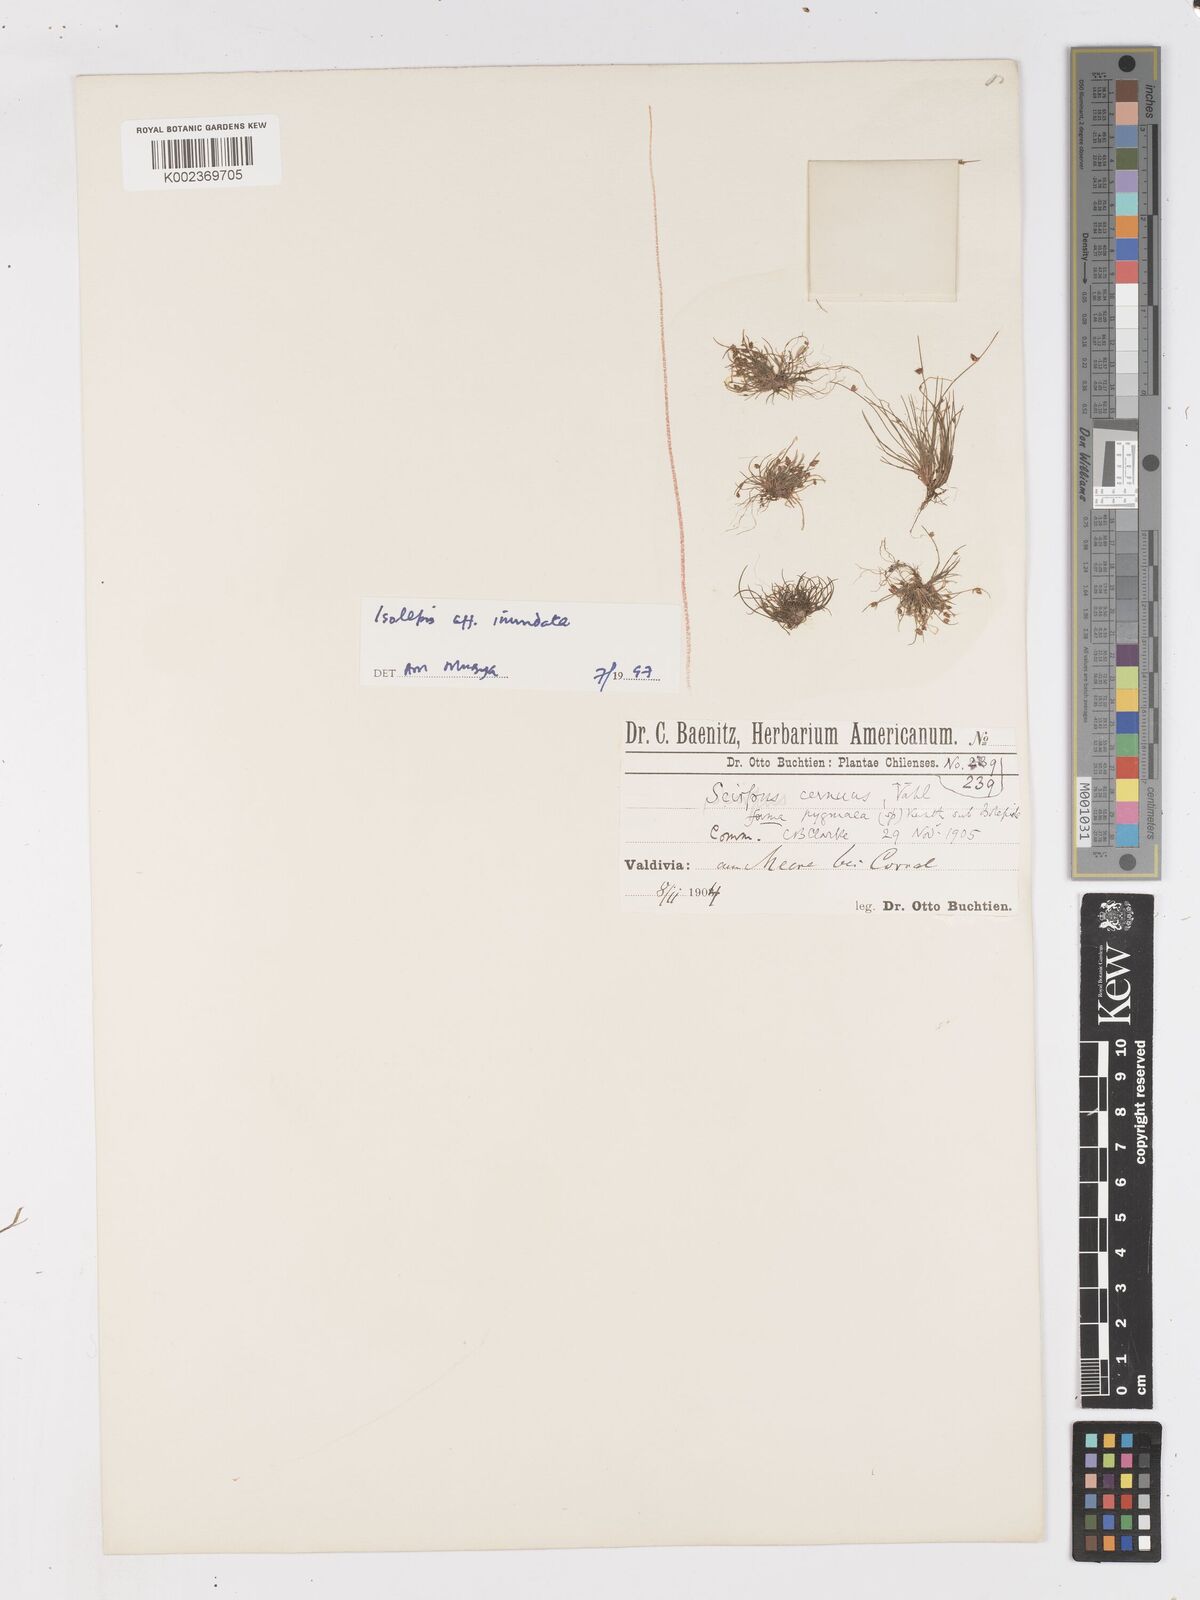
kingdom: Plantae
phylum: Tracheophyta
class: Liliopsida
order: Poales
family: Cyperaceae
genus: Isolepis
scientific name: Isolepis inundata
